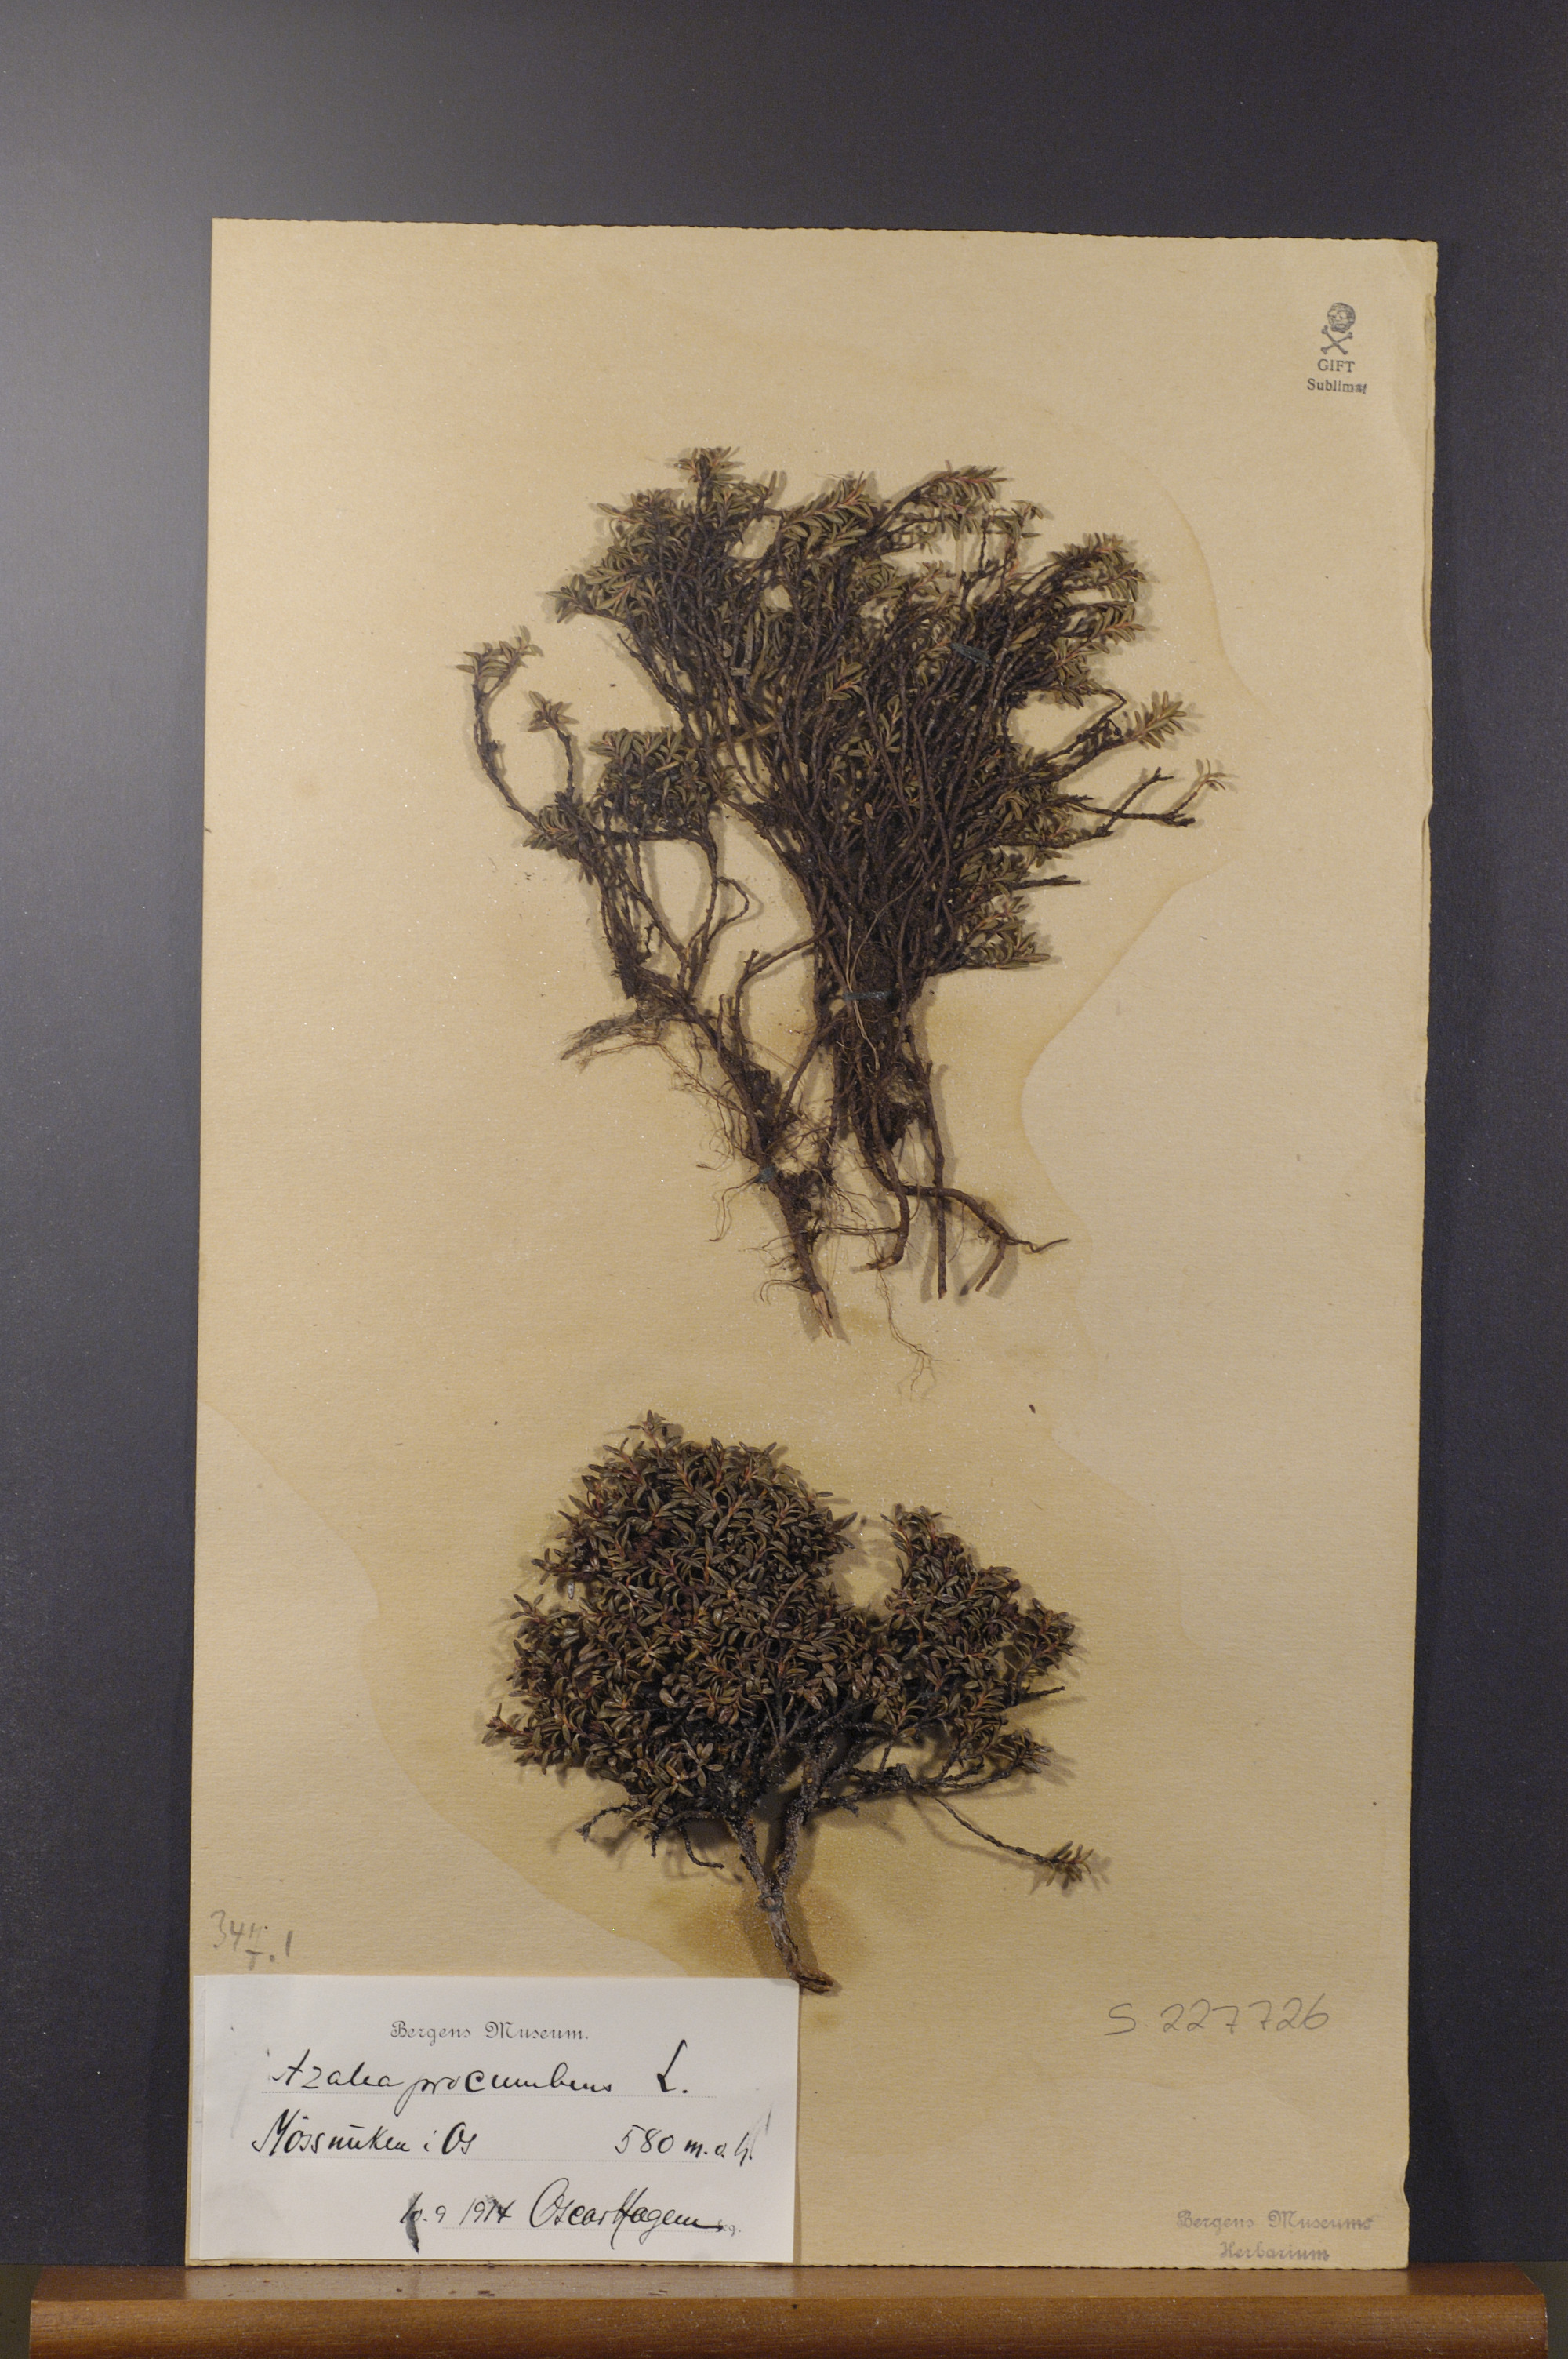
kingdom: Plantae
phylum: Tracheophyta
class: Magnoliopsida
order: Ericales
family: Ericaceae
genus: Kalmia
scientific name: Kalmia procumbens
